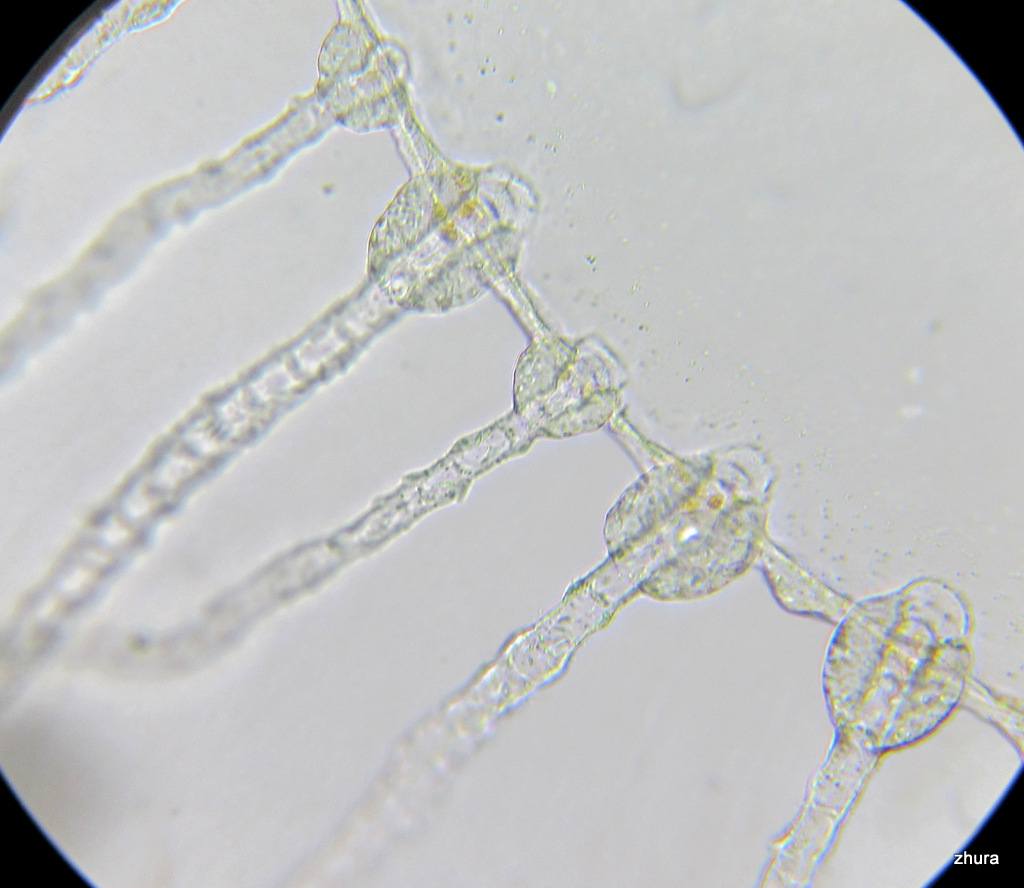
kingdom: Animalia
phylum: Cnidaria
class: Hydrozoa
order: Leptothecata
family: Campanulariidae
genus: Obelia
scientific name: Obelia longissima
